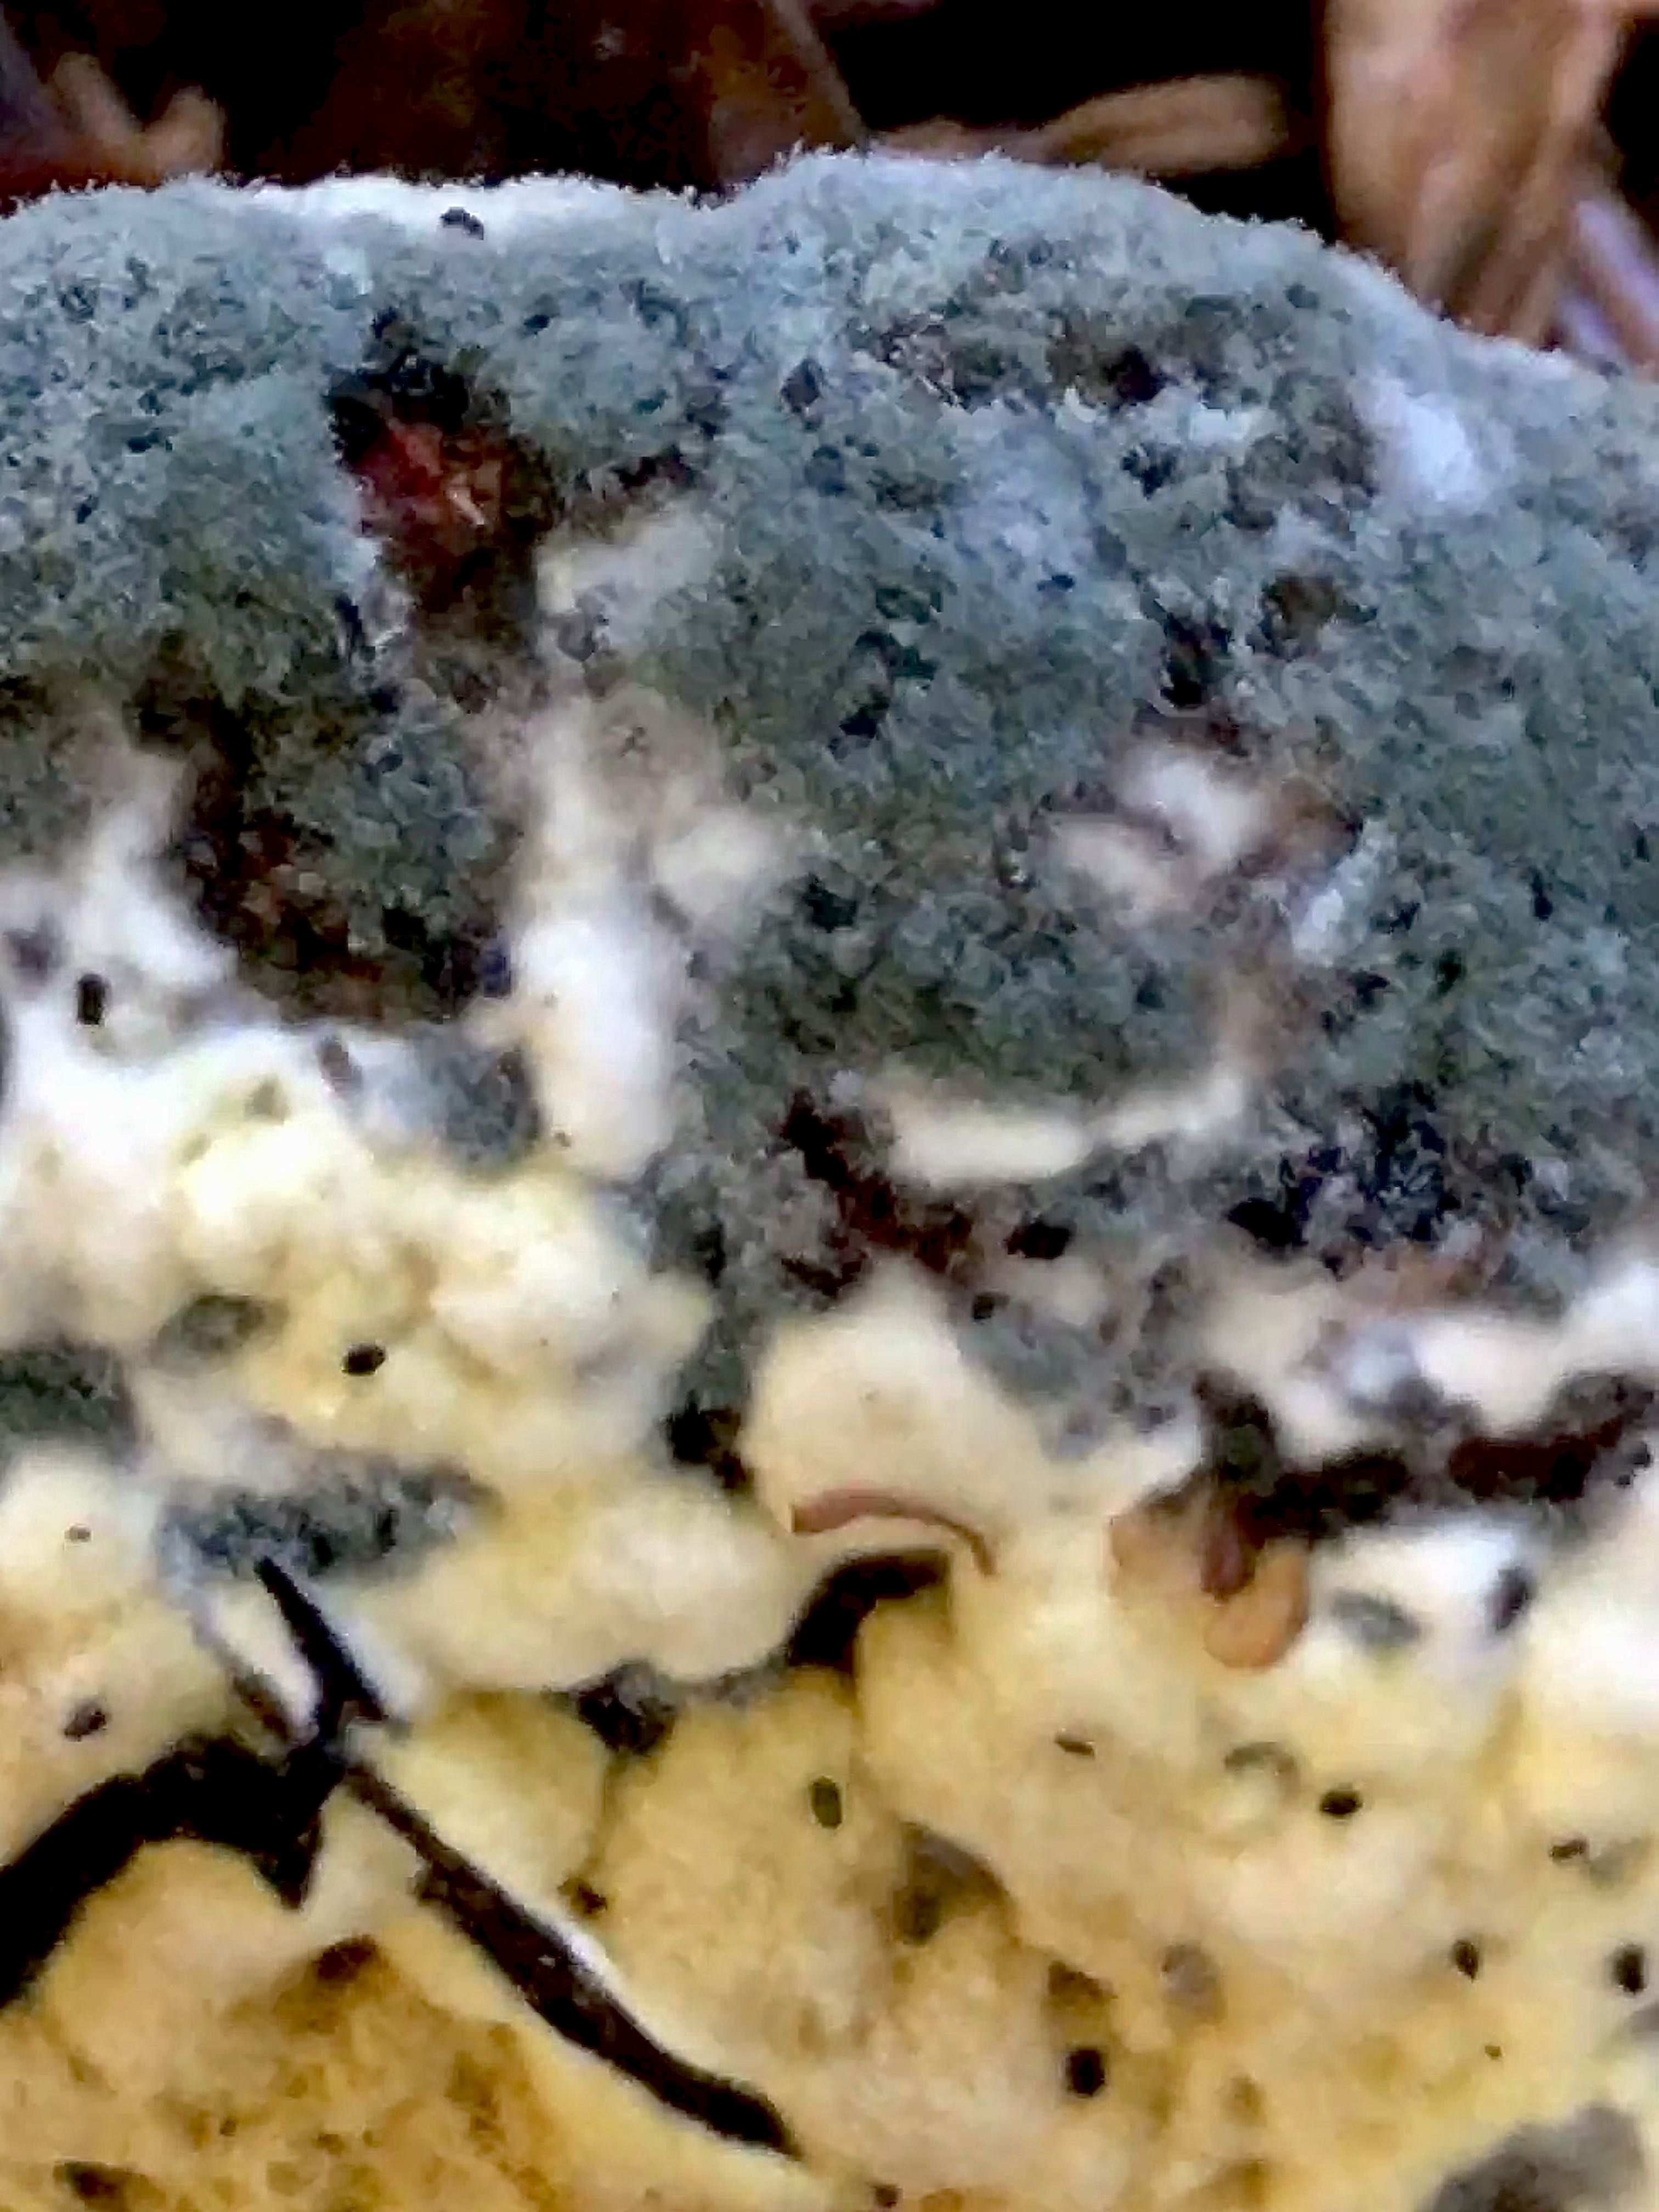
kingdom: Fungi
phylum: Ascomycota
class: Eurotiomycetes
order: Eurotiales
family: Aspergillaceae
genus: Penicillium
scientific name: Penicillium
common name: penselskimmel
